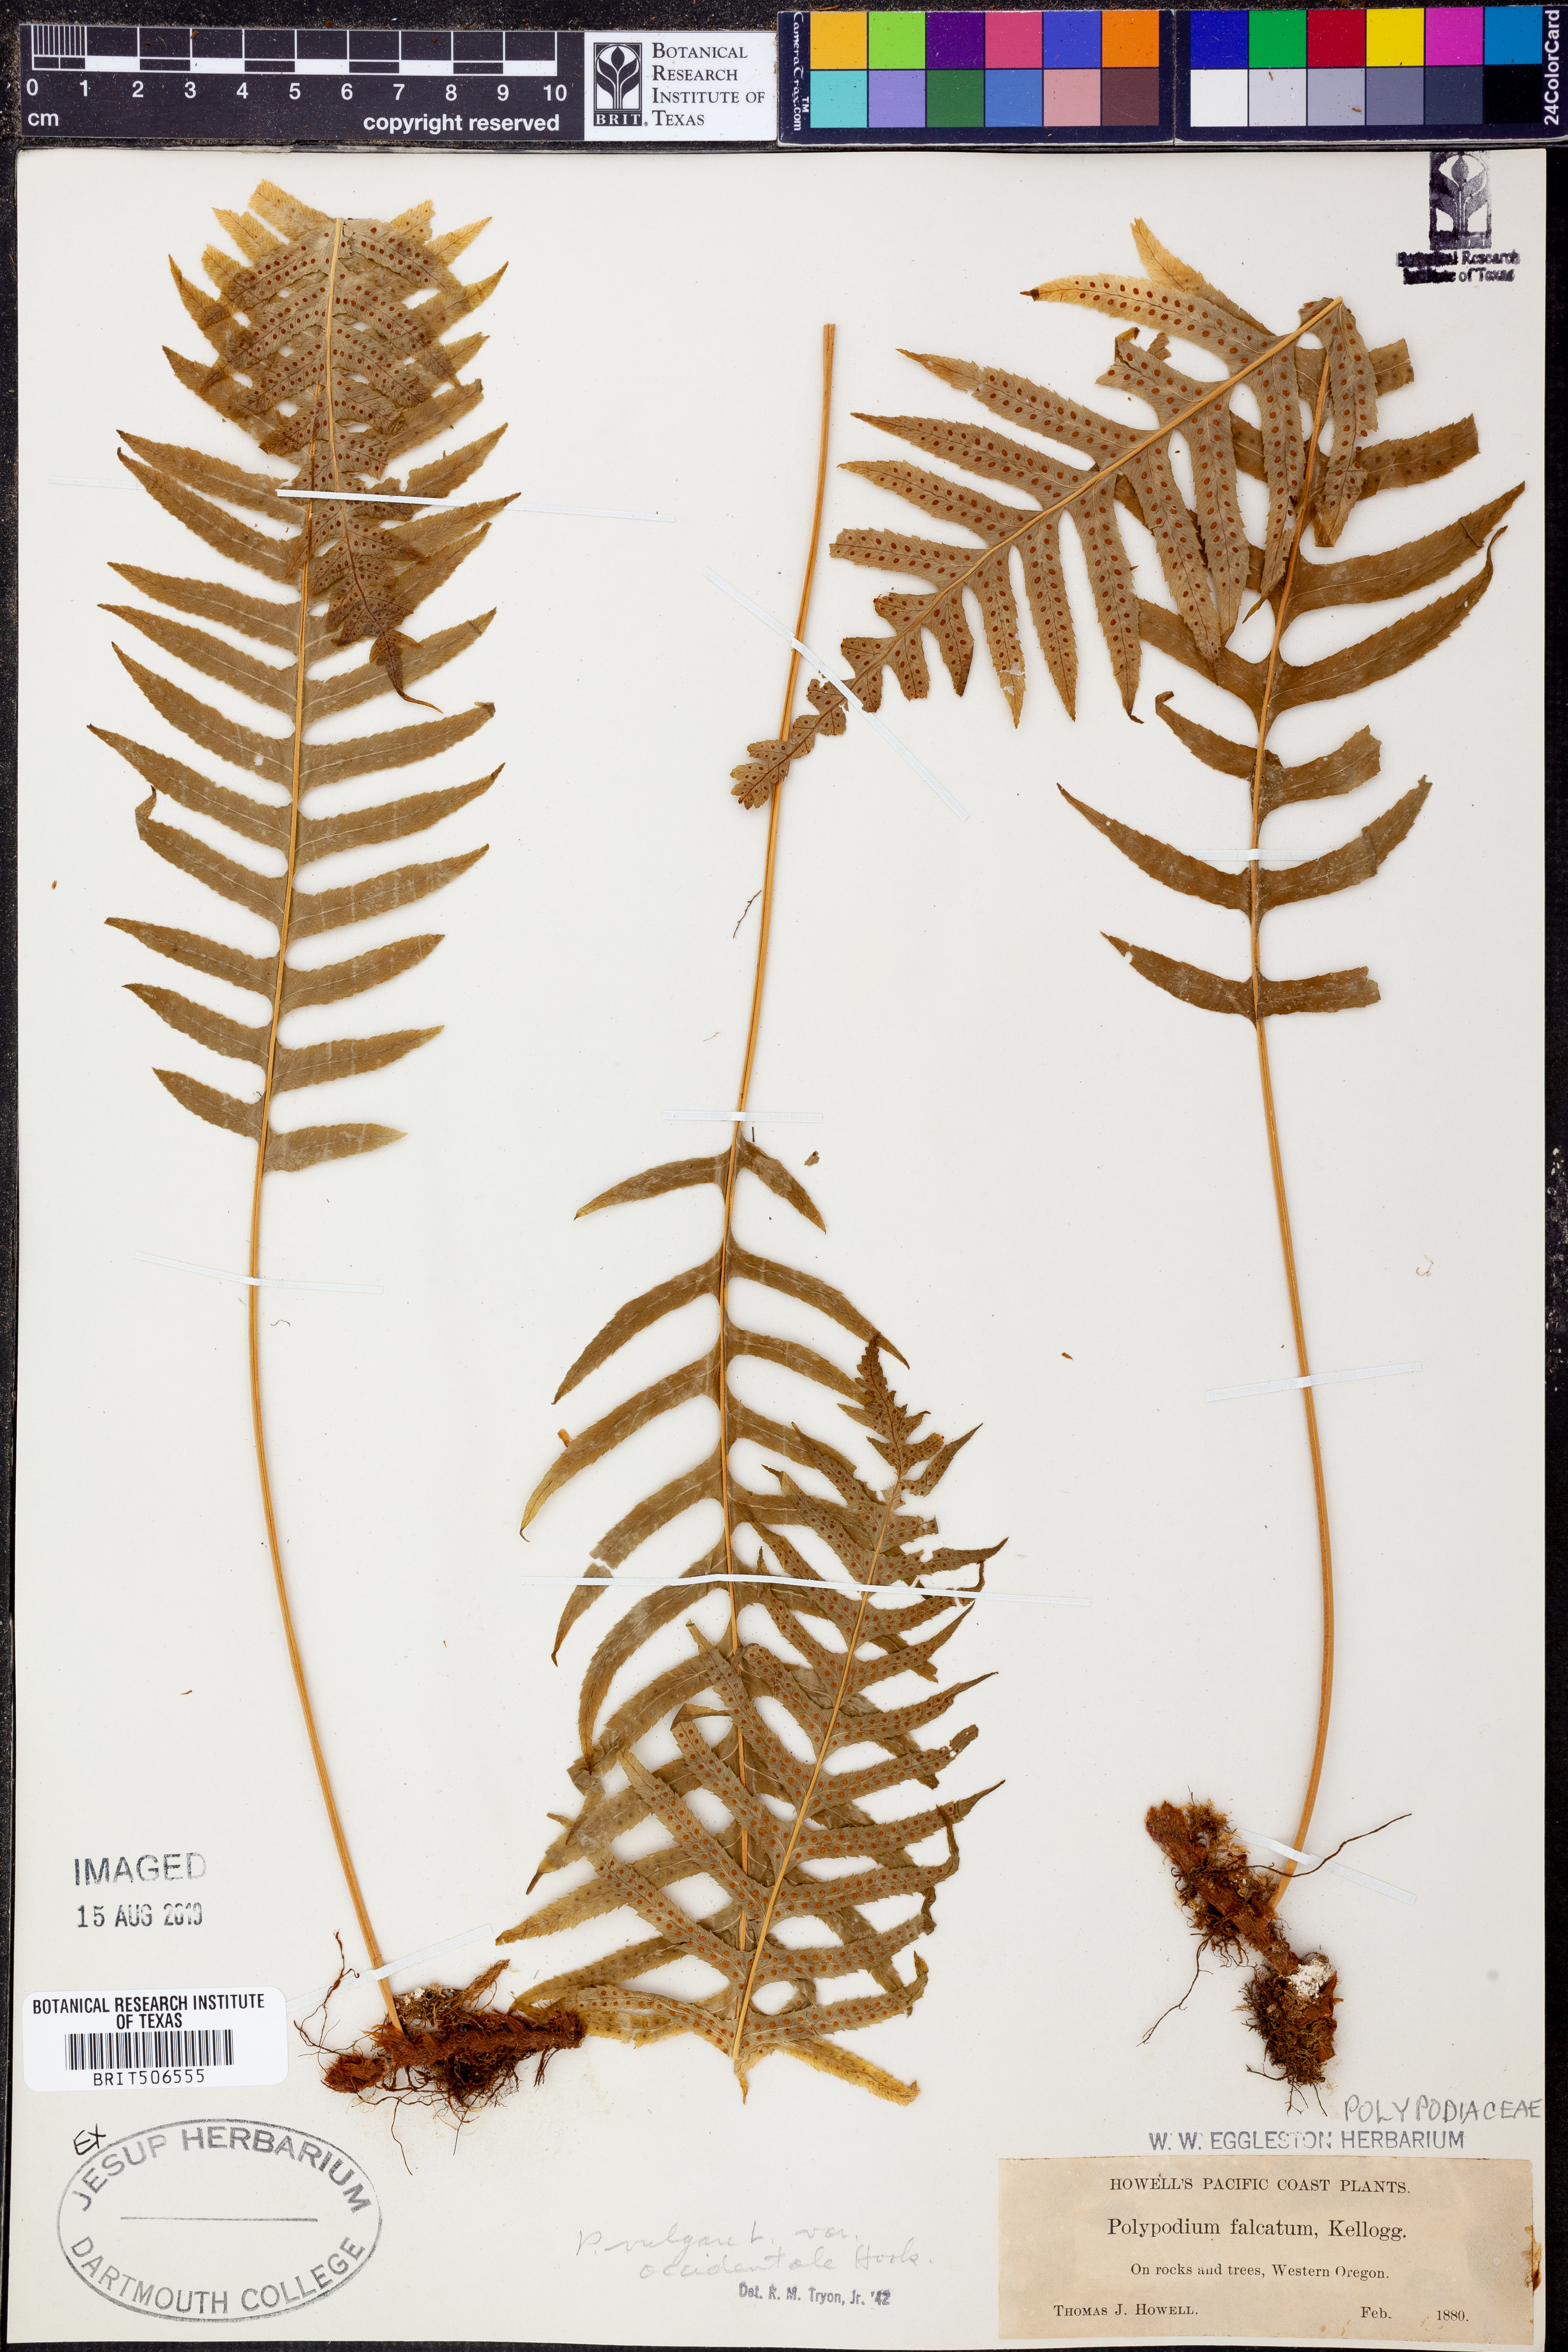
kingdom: Plantae
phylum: Tracheophyta
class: Polypodiopsida
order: Polypodiales
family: Polypodiaceae
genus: Polypodium
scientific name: Polypodium glycyrrhiza
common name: Licorice fern
